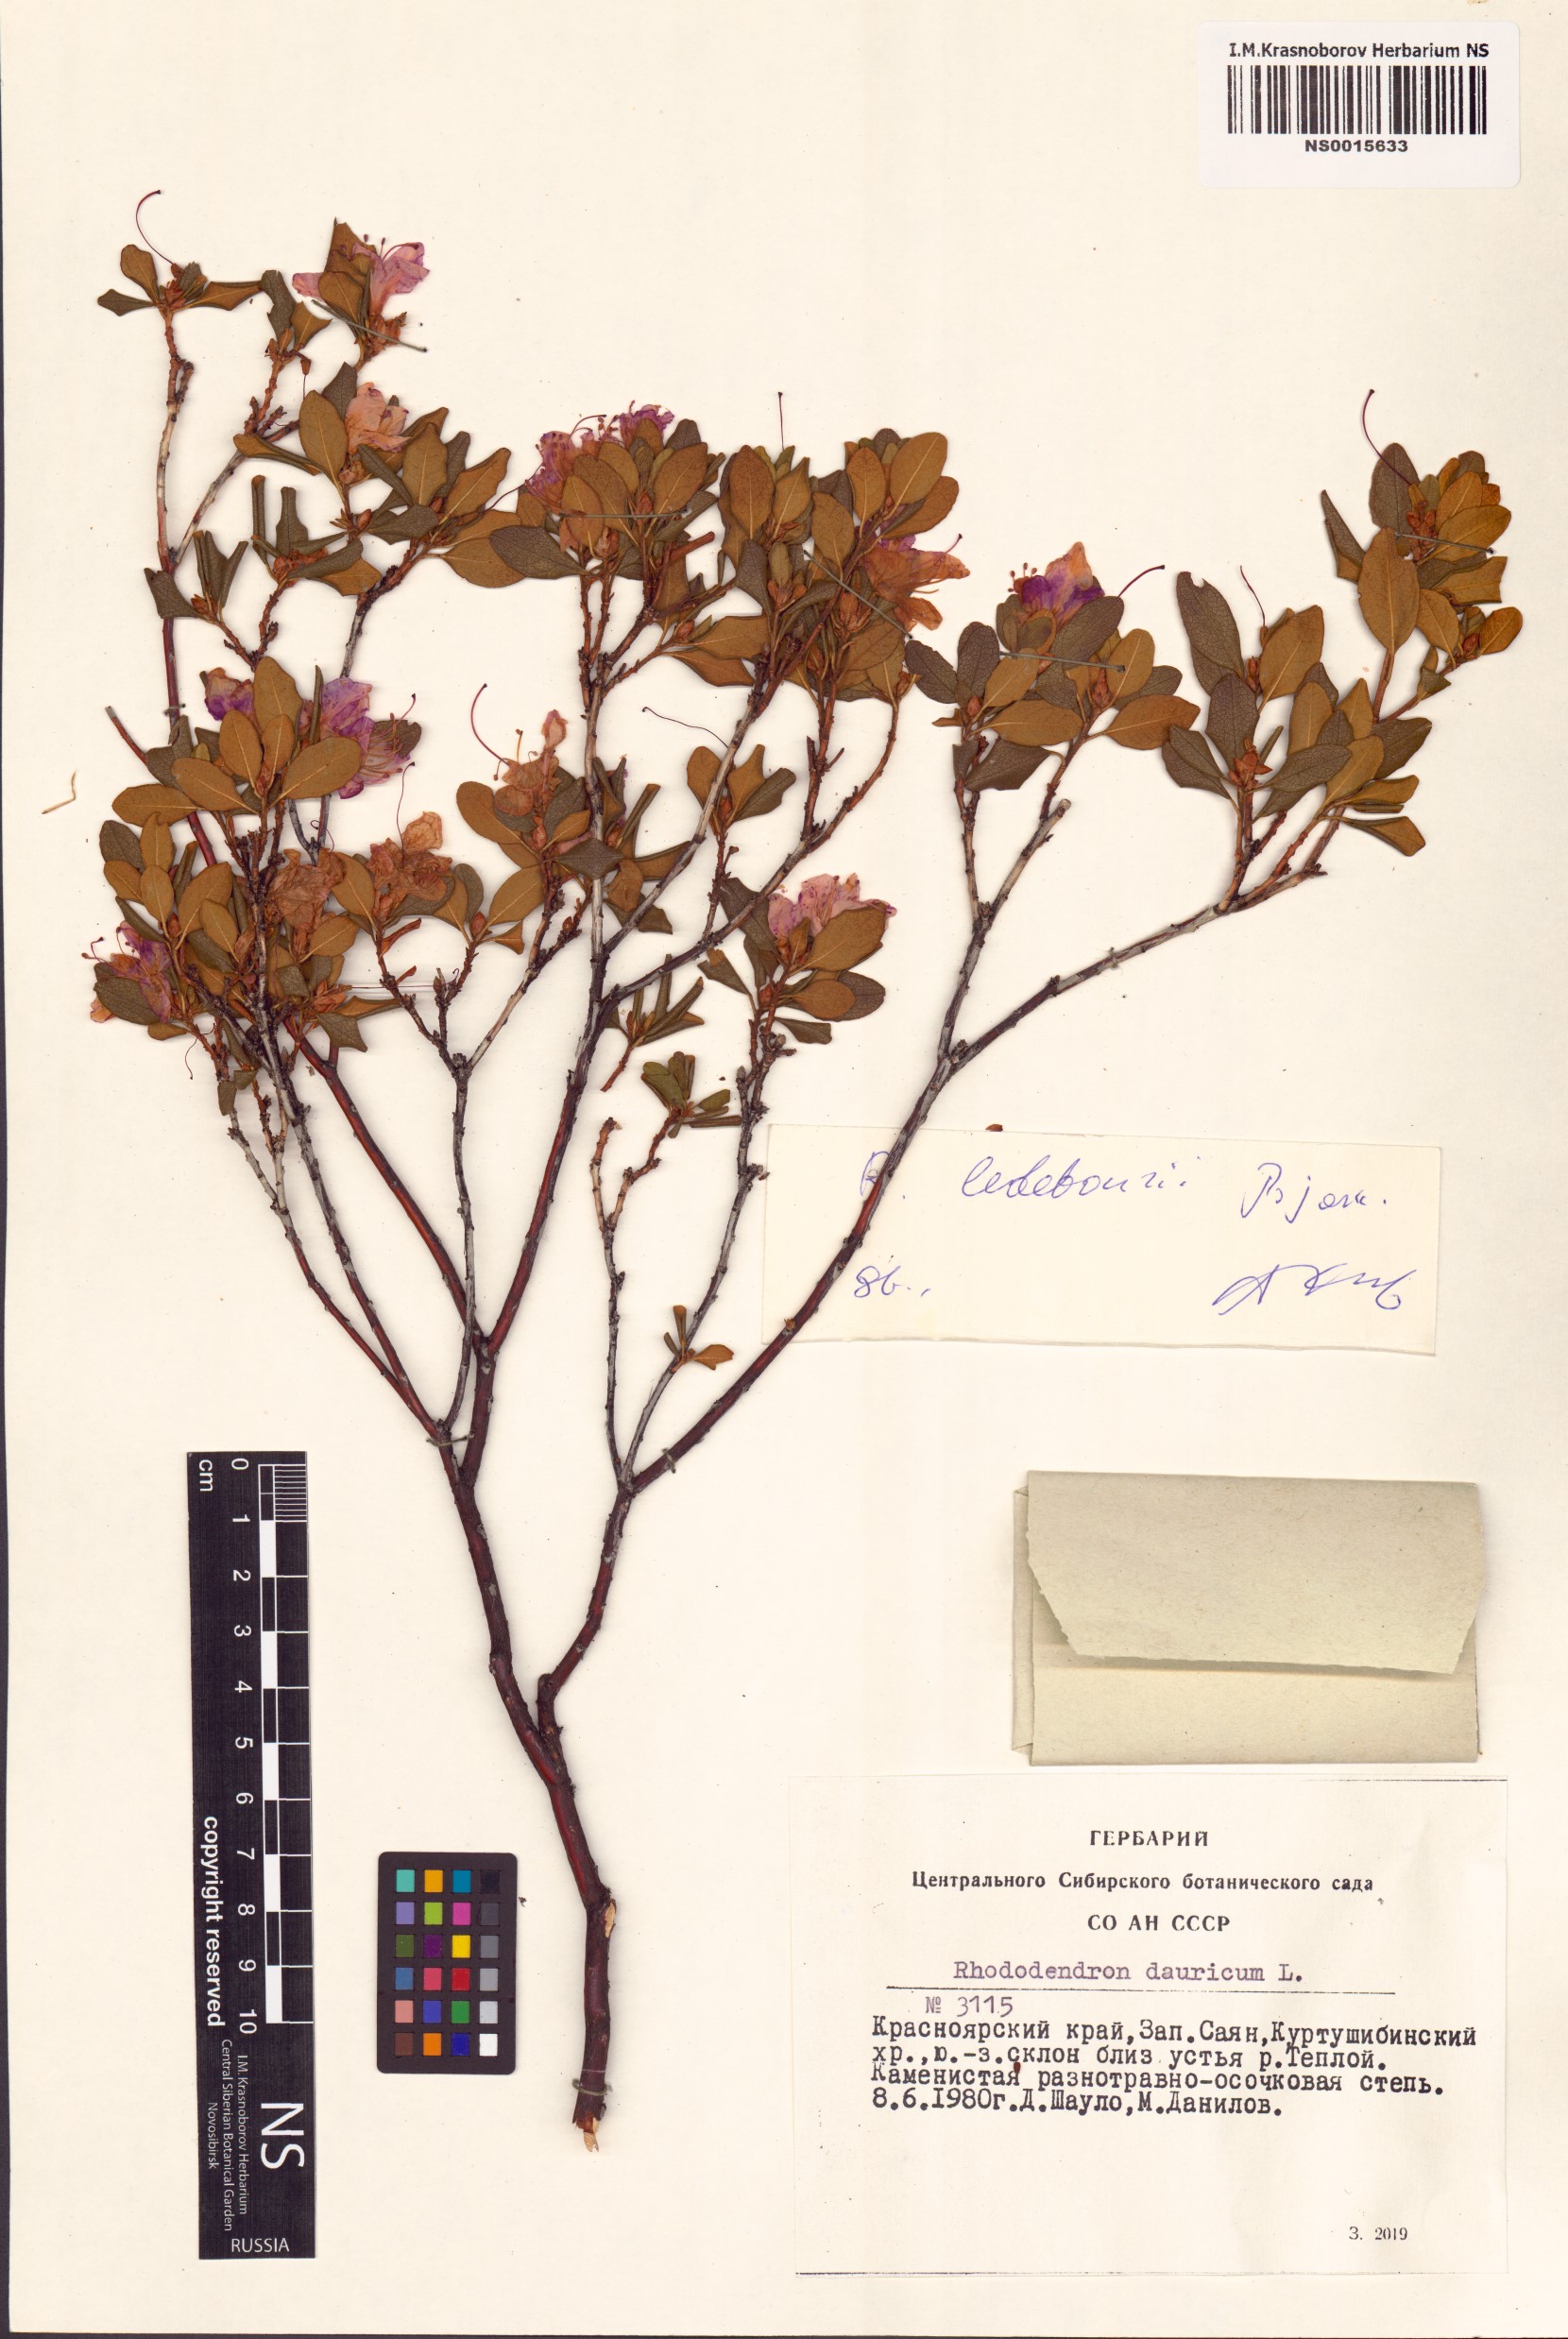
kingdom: Plantae
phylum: Tracheophyta
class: Magnoliopsida
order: Ericales
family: Ericaceae
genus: Rhododendron
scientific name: Rhododendron dauricum
